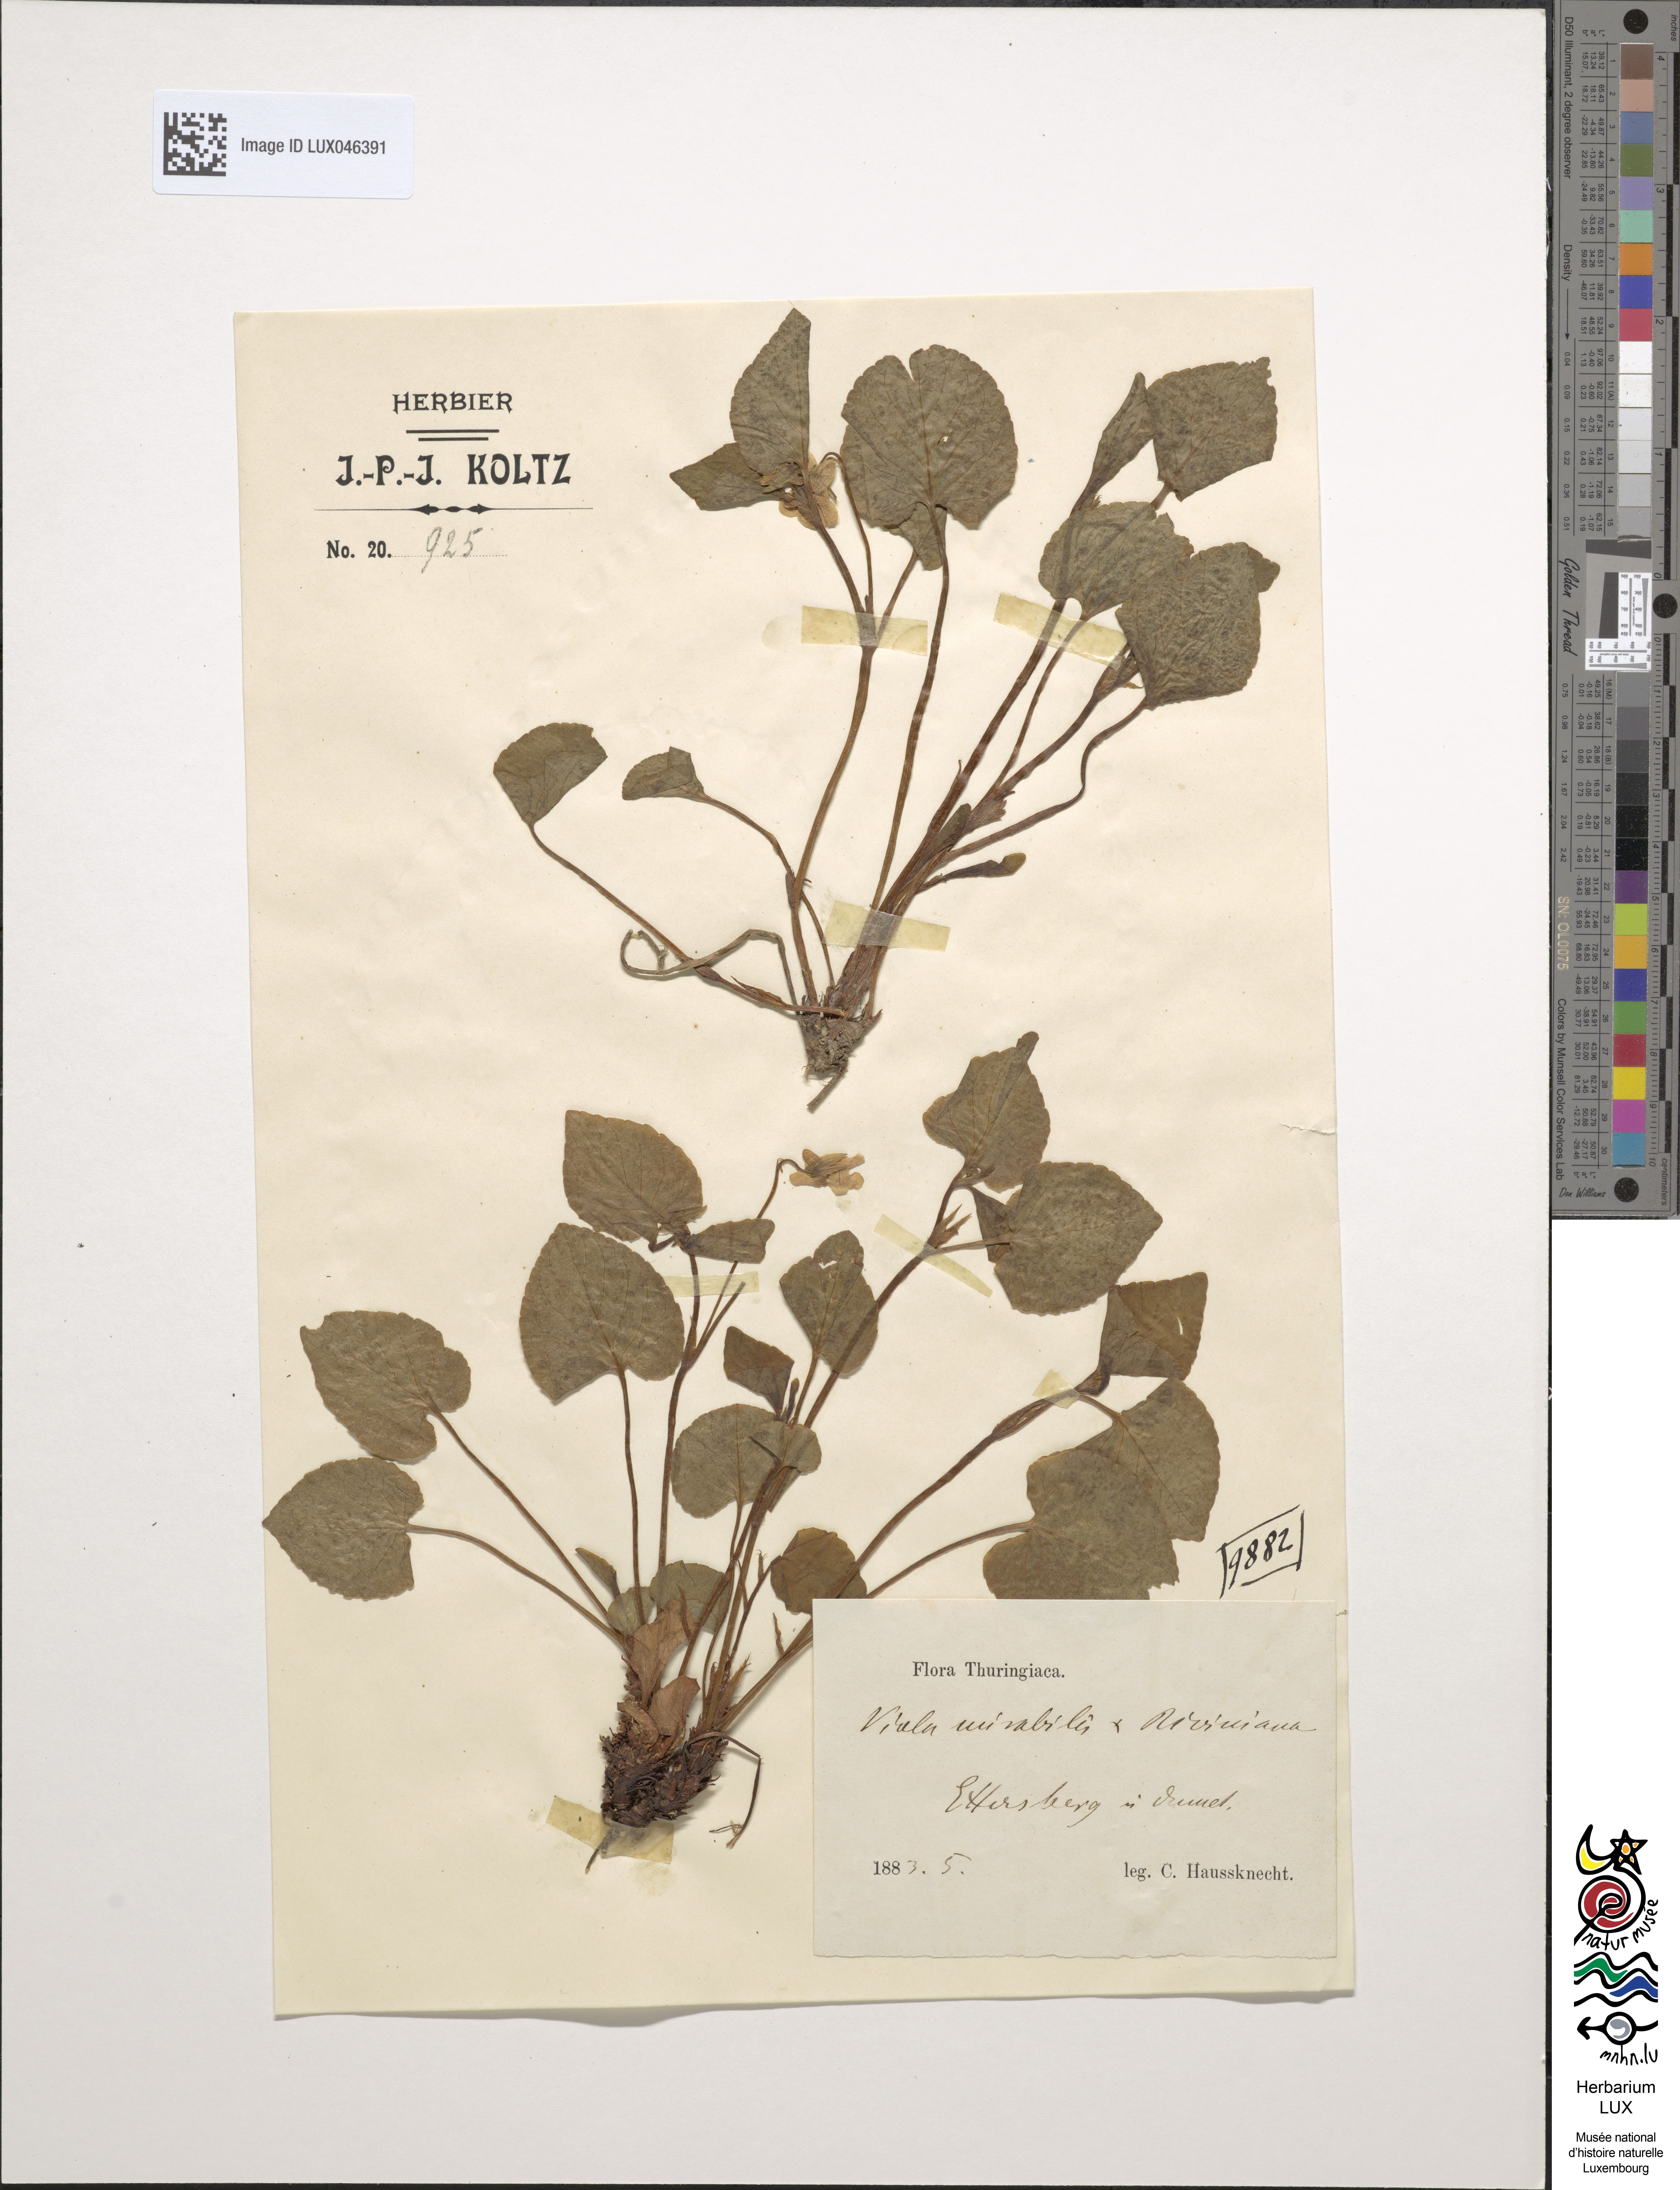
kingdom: Plantae
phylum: Tracheophyta
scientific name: Tracheophyta
